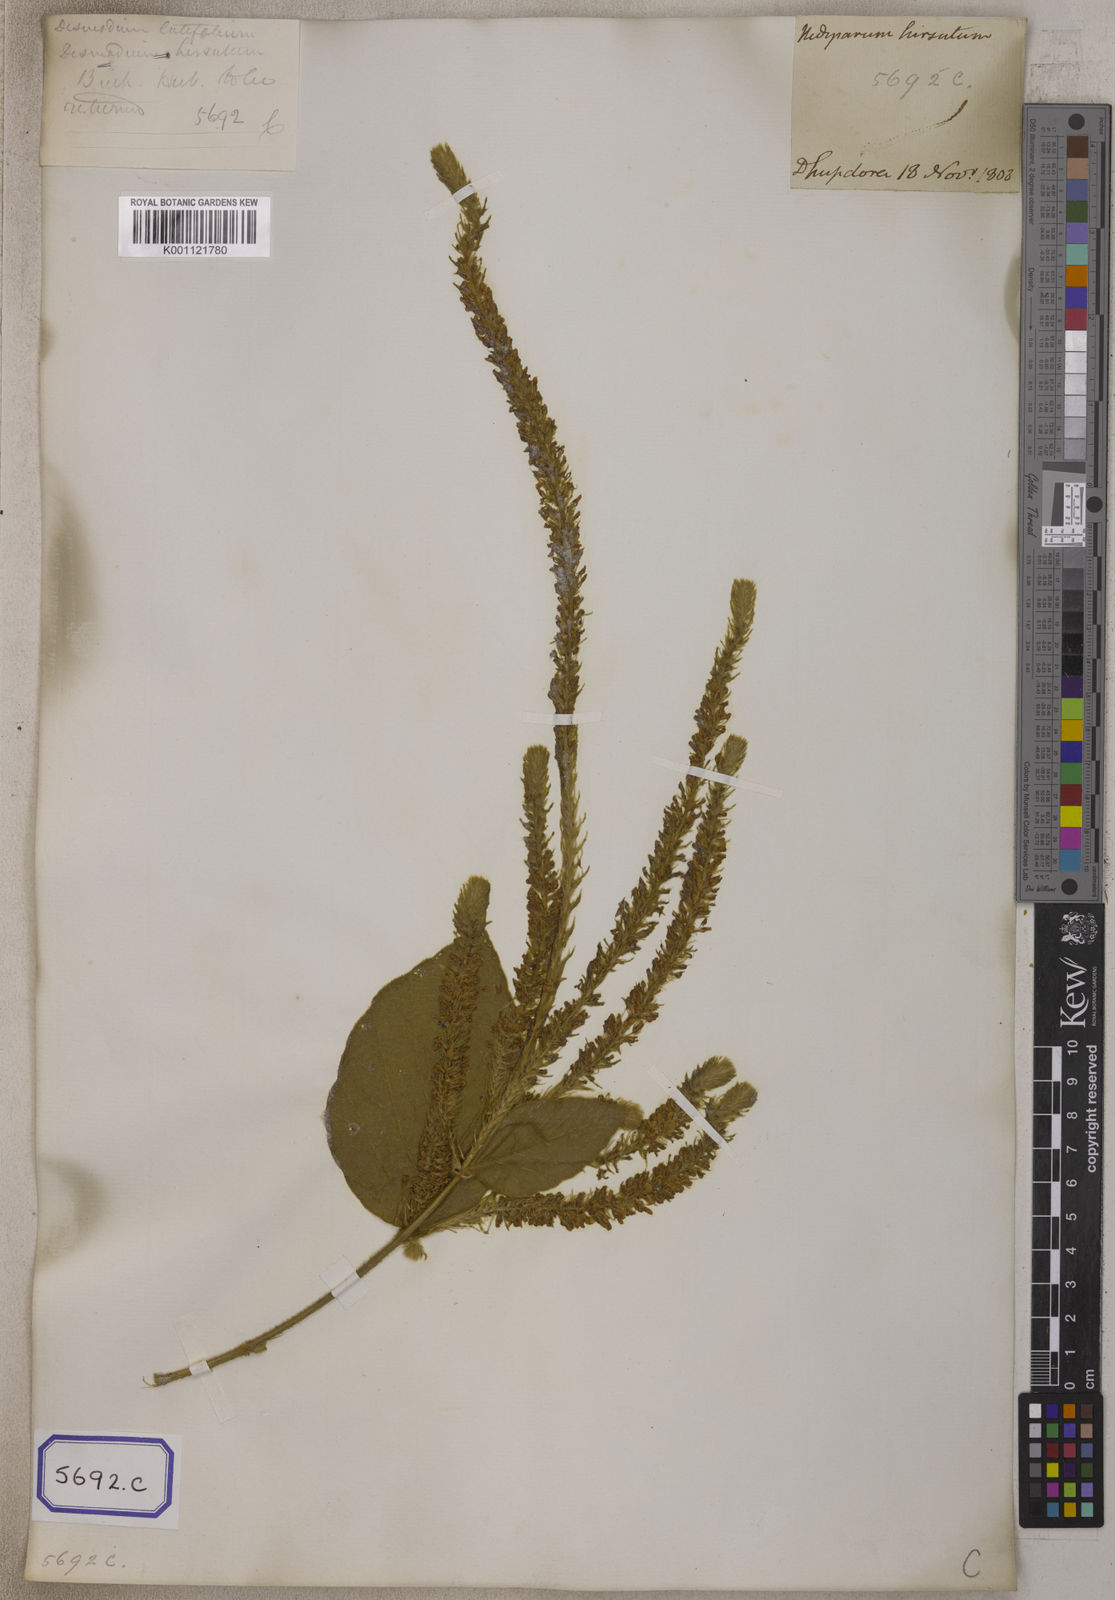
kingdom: Plantae
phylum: Tracheophyta
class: Magnoliopsida
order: Fabales
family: Fabaceae
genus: Polhillides
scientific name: Polhillides velutina
